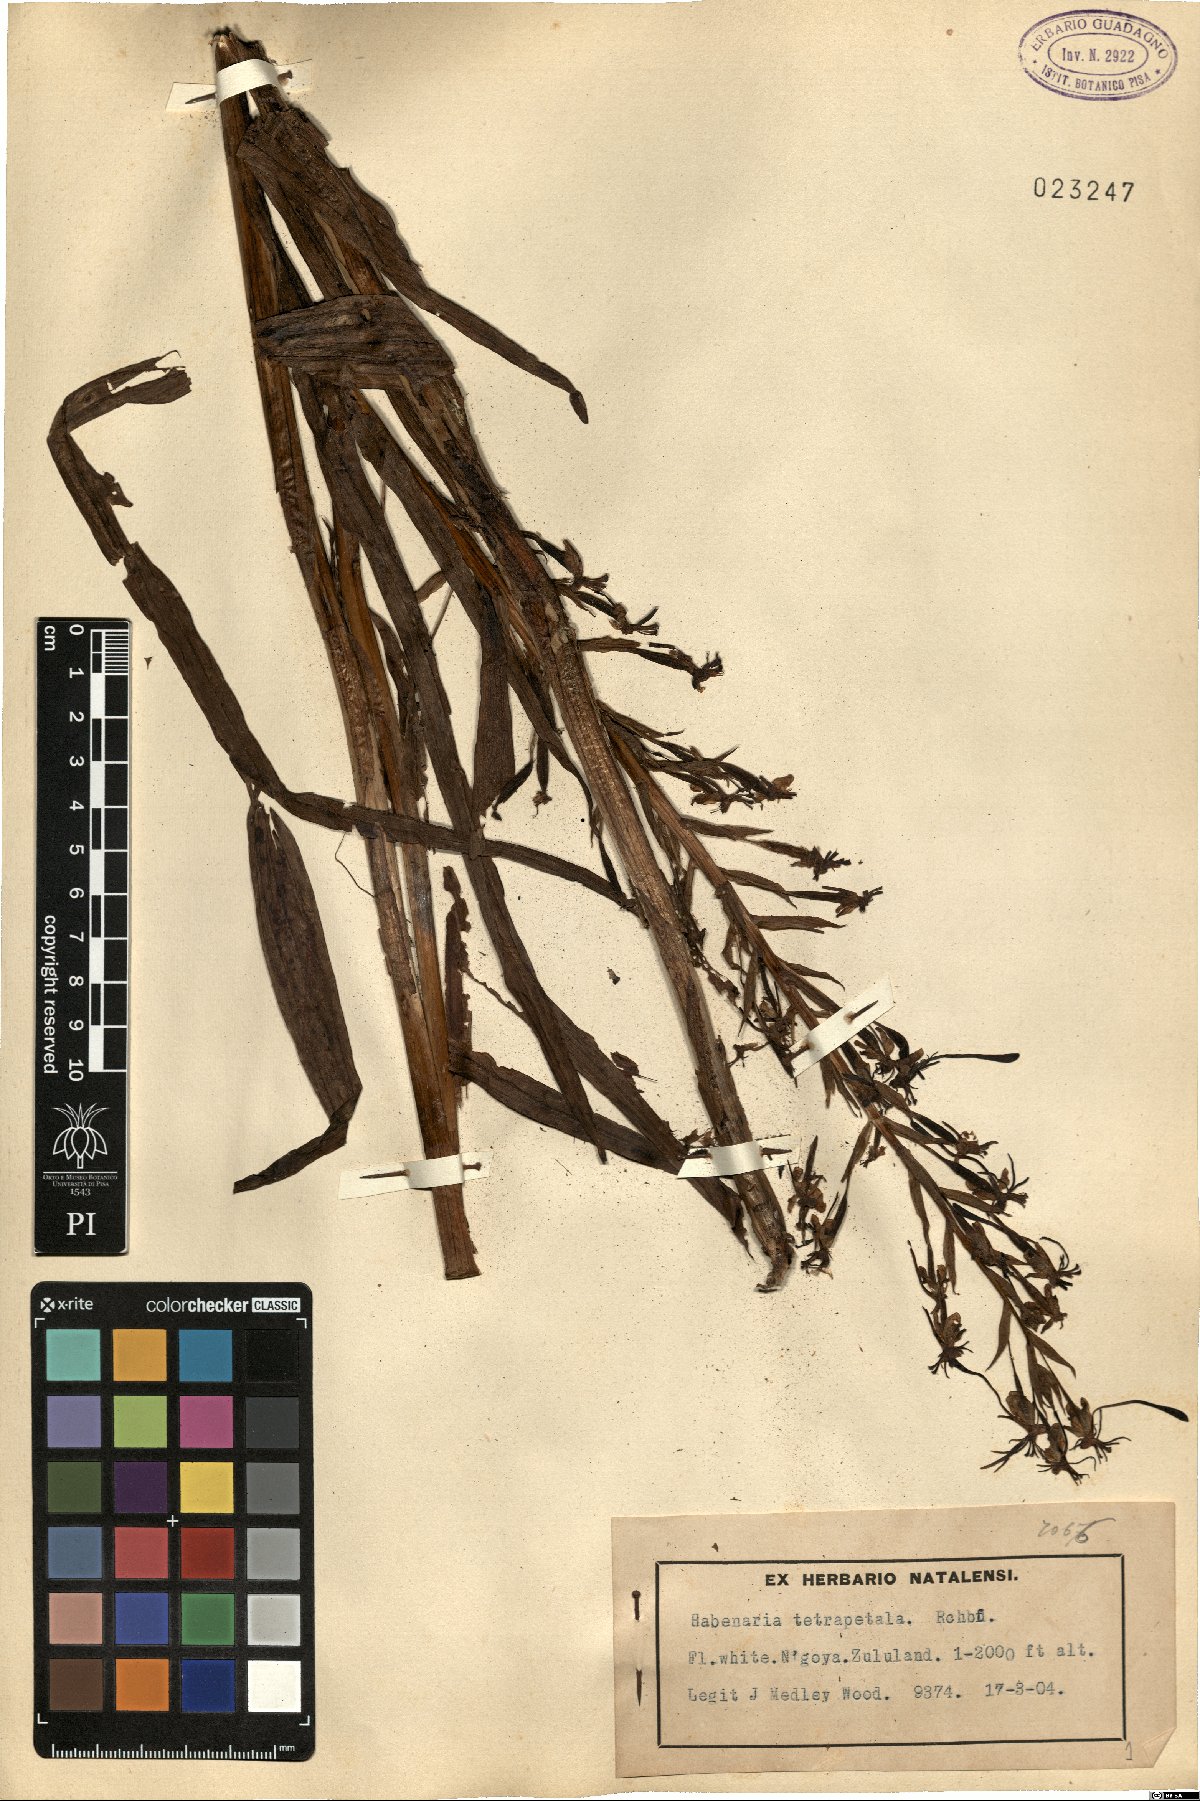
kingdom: Plantae
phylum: Tracheophyta
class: Liliopsida
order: Asparagales
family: Orchidaceae
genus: Habenaria
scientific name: Habenaria falcicornis
